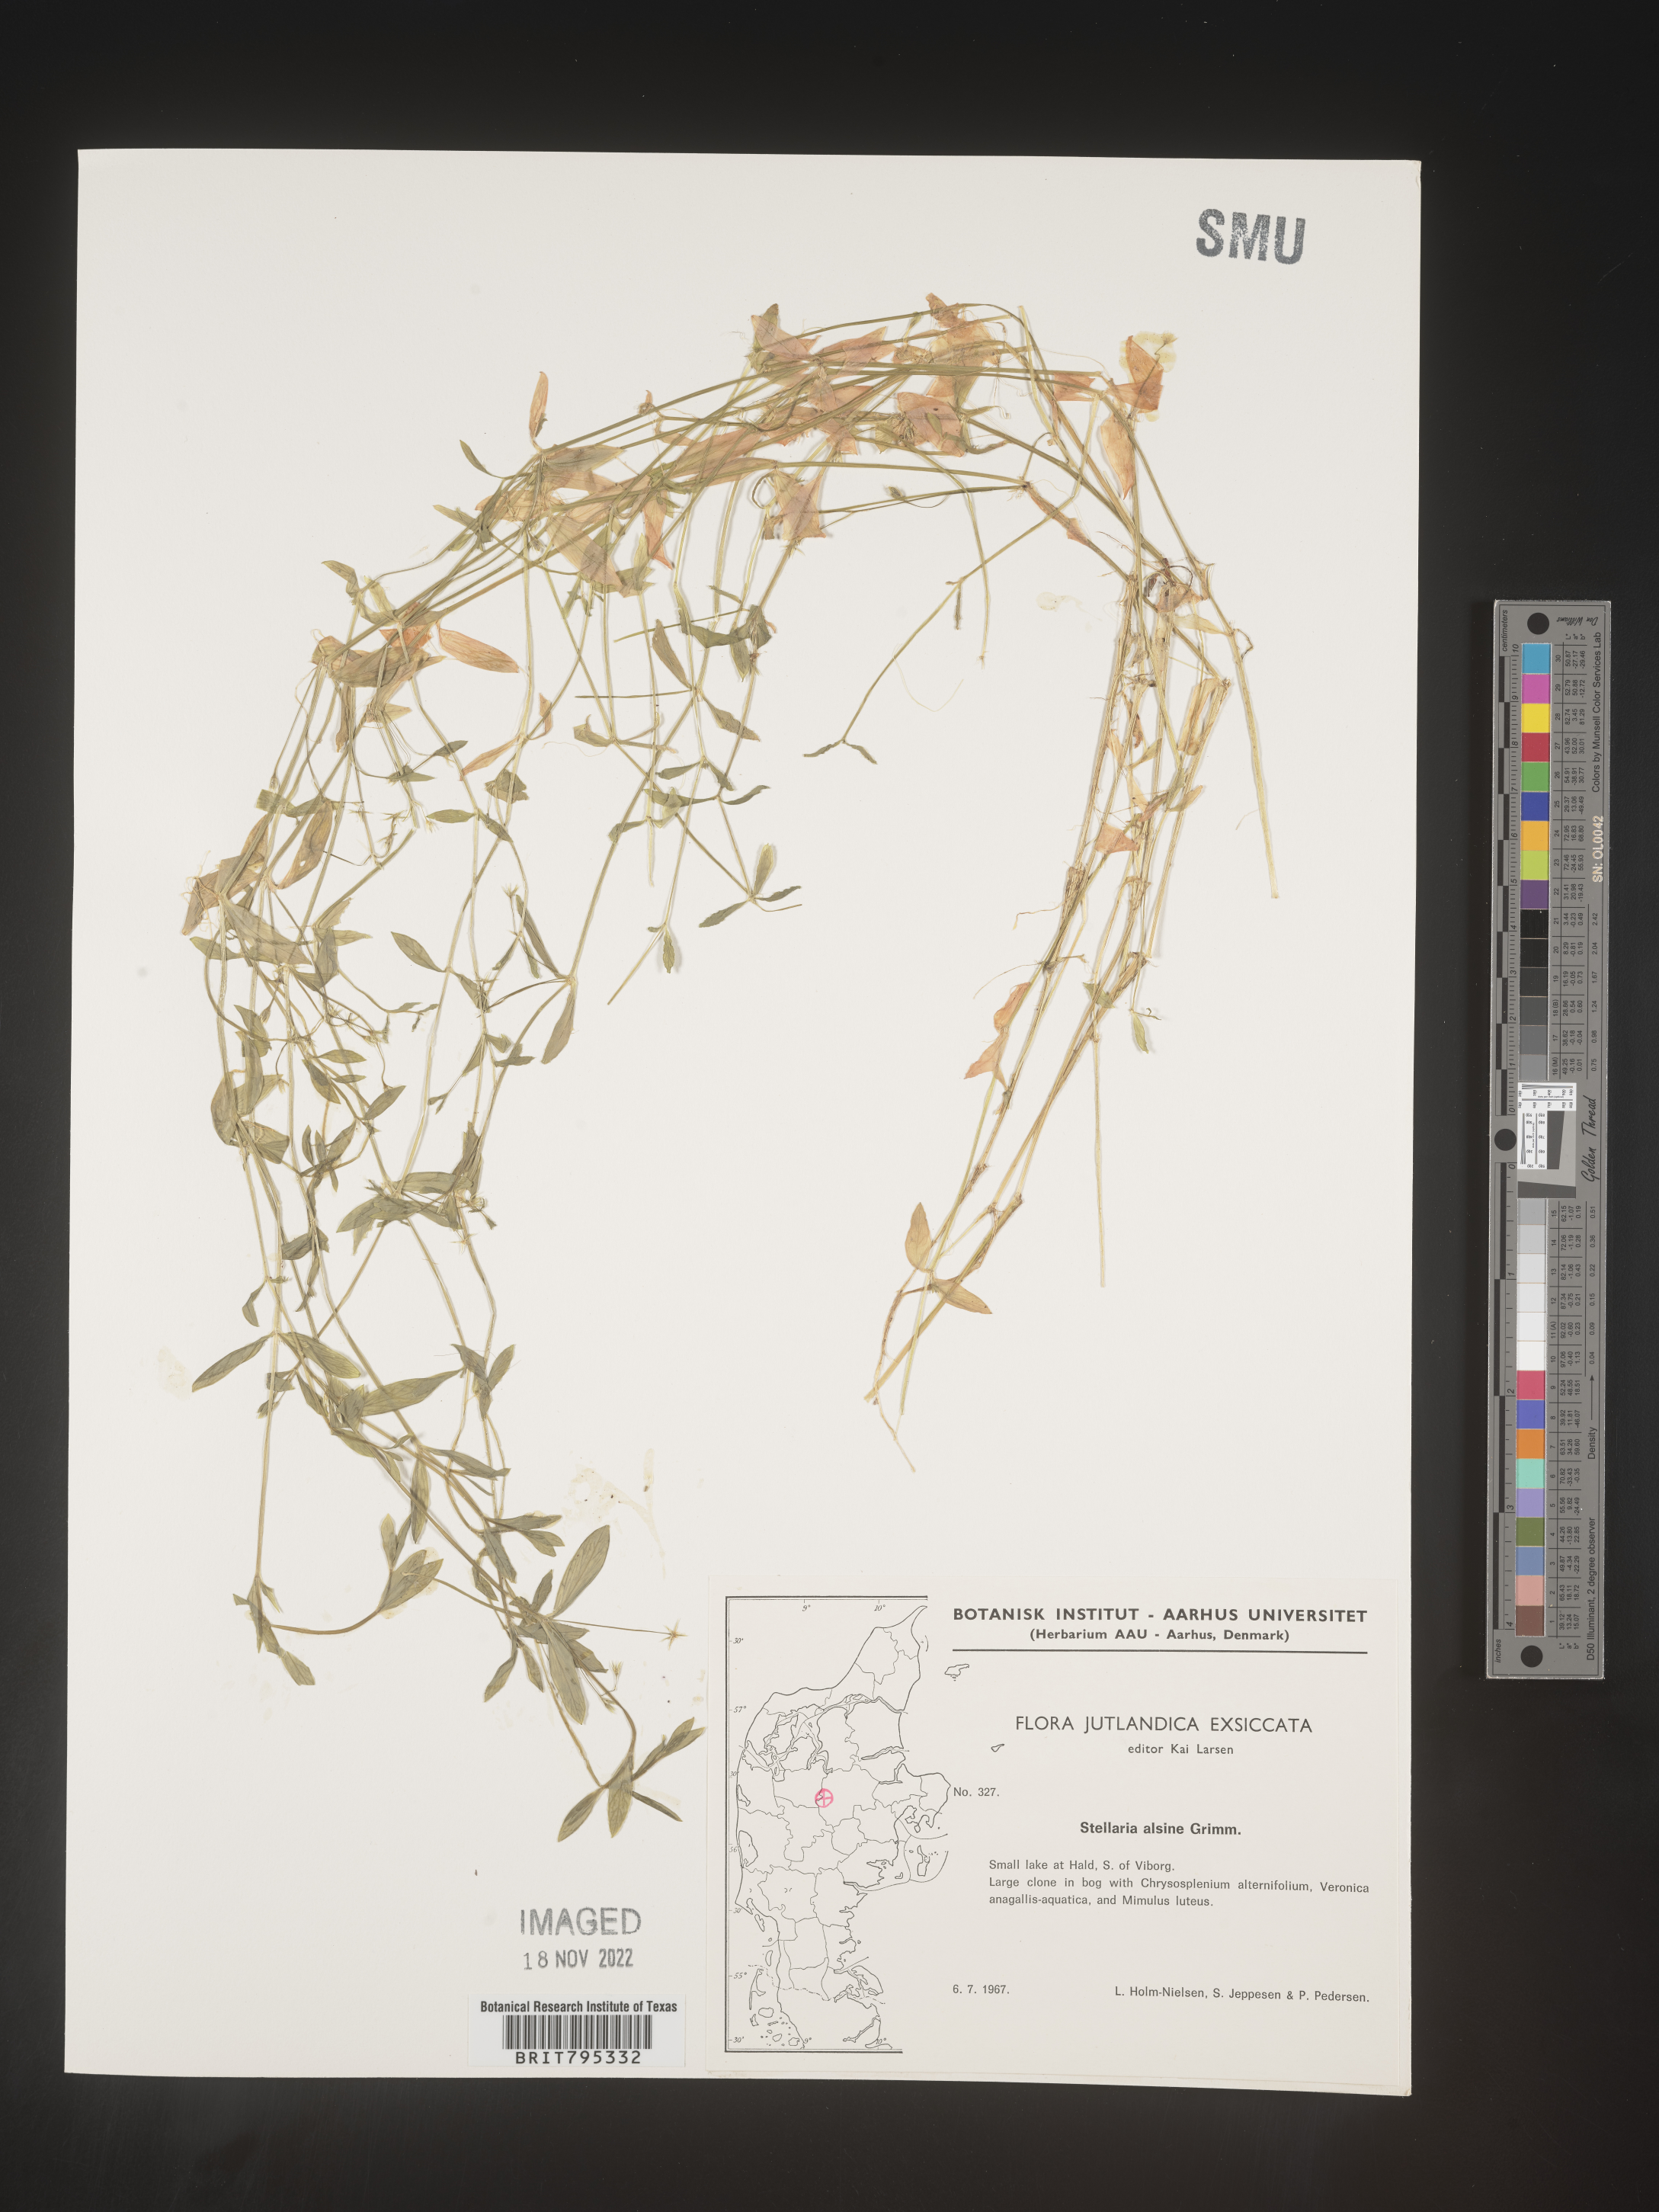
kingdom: Plantae
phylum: Tracheophyta
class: Magnoliopsida
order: Caryophyllales
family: Caryophyllaceae
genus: Stellaria
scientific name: Stellaria
